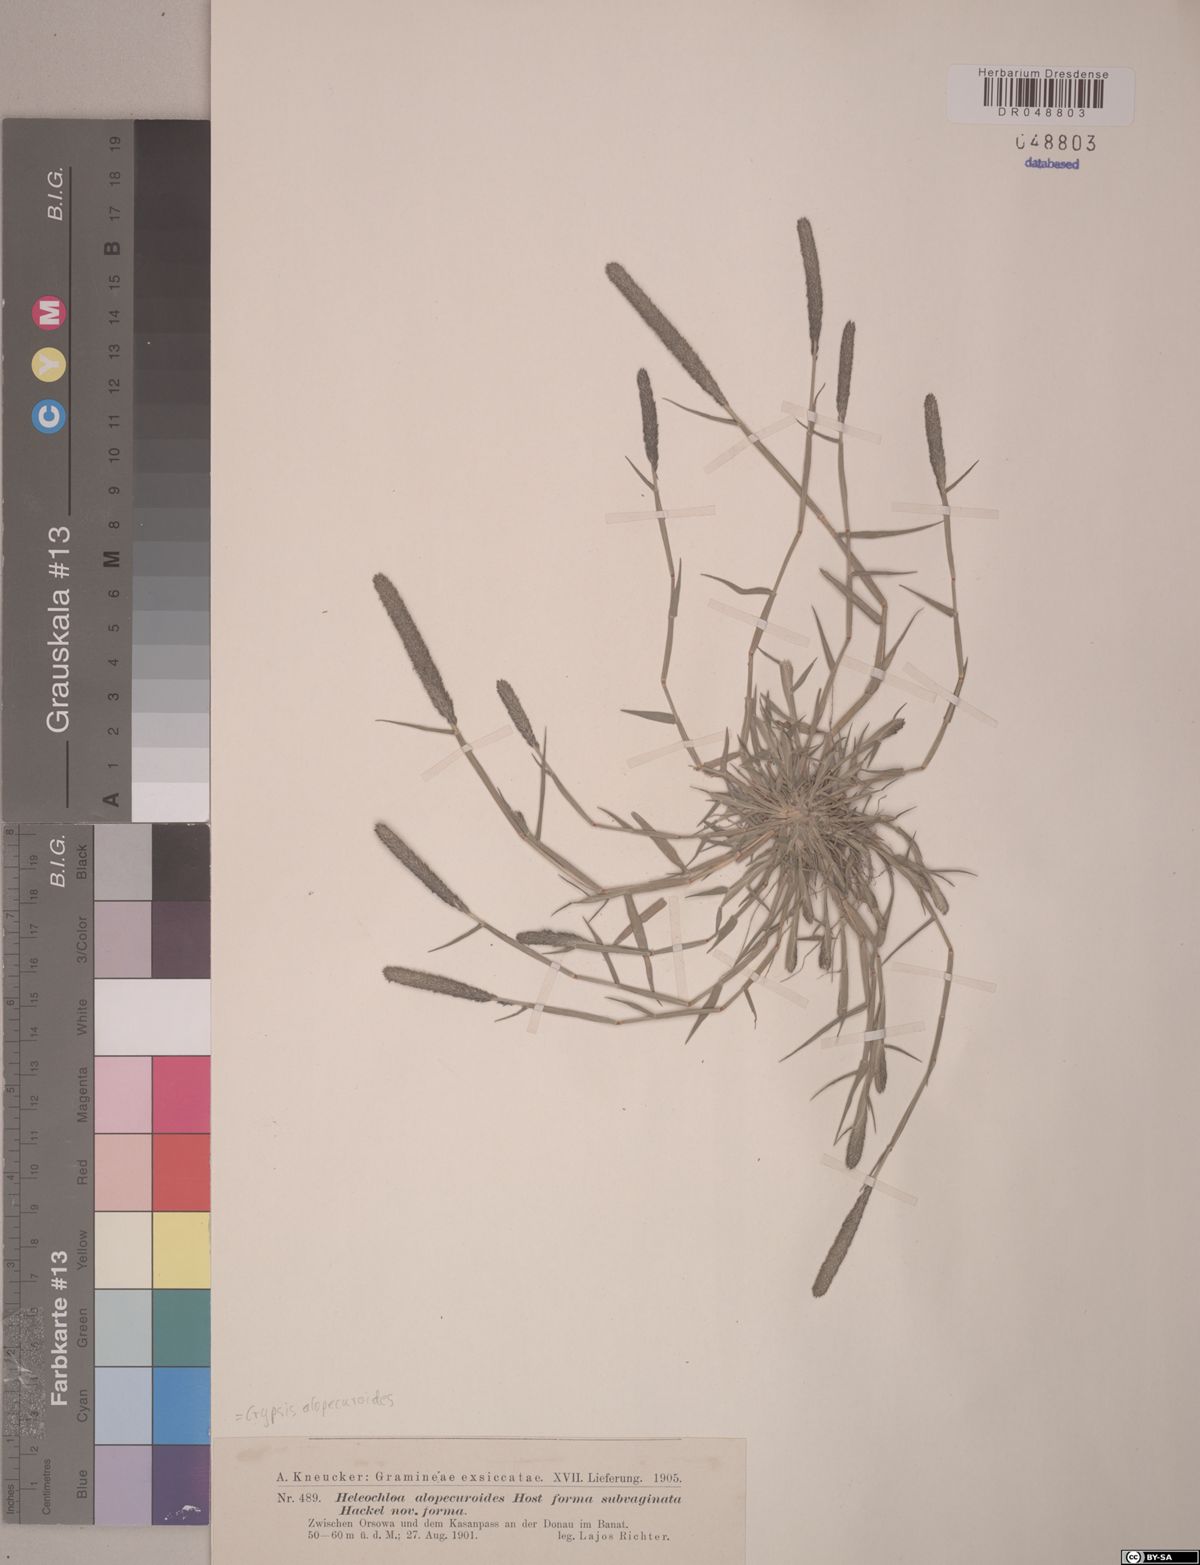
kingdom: Plantae
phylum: Tracheophyta
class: Liliopsida
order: Poales
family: Poaceae
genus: Sporobolus
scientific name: Sporobolus alopecuroides
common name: Foxtail pricklegrass
